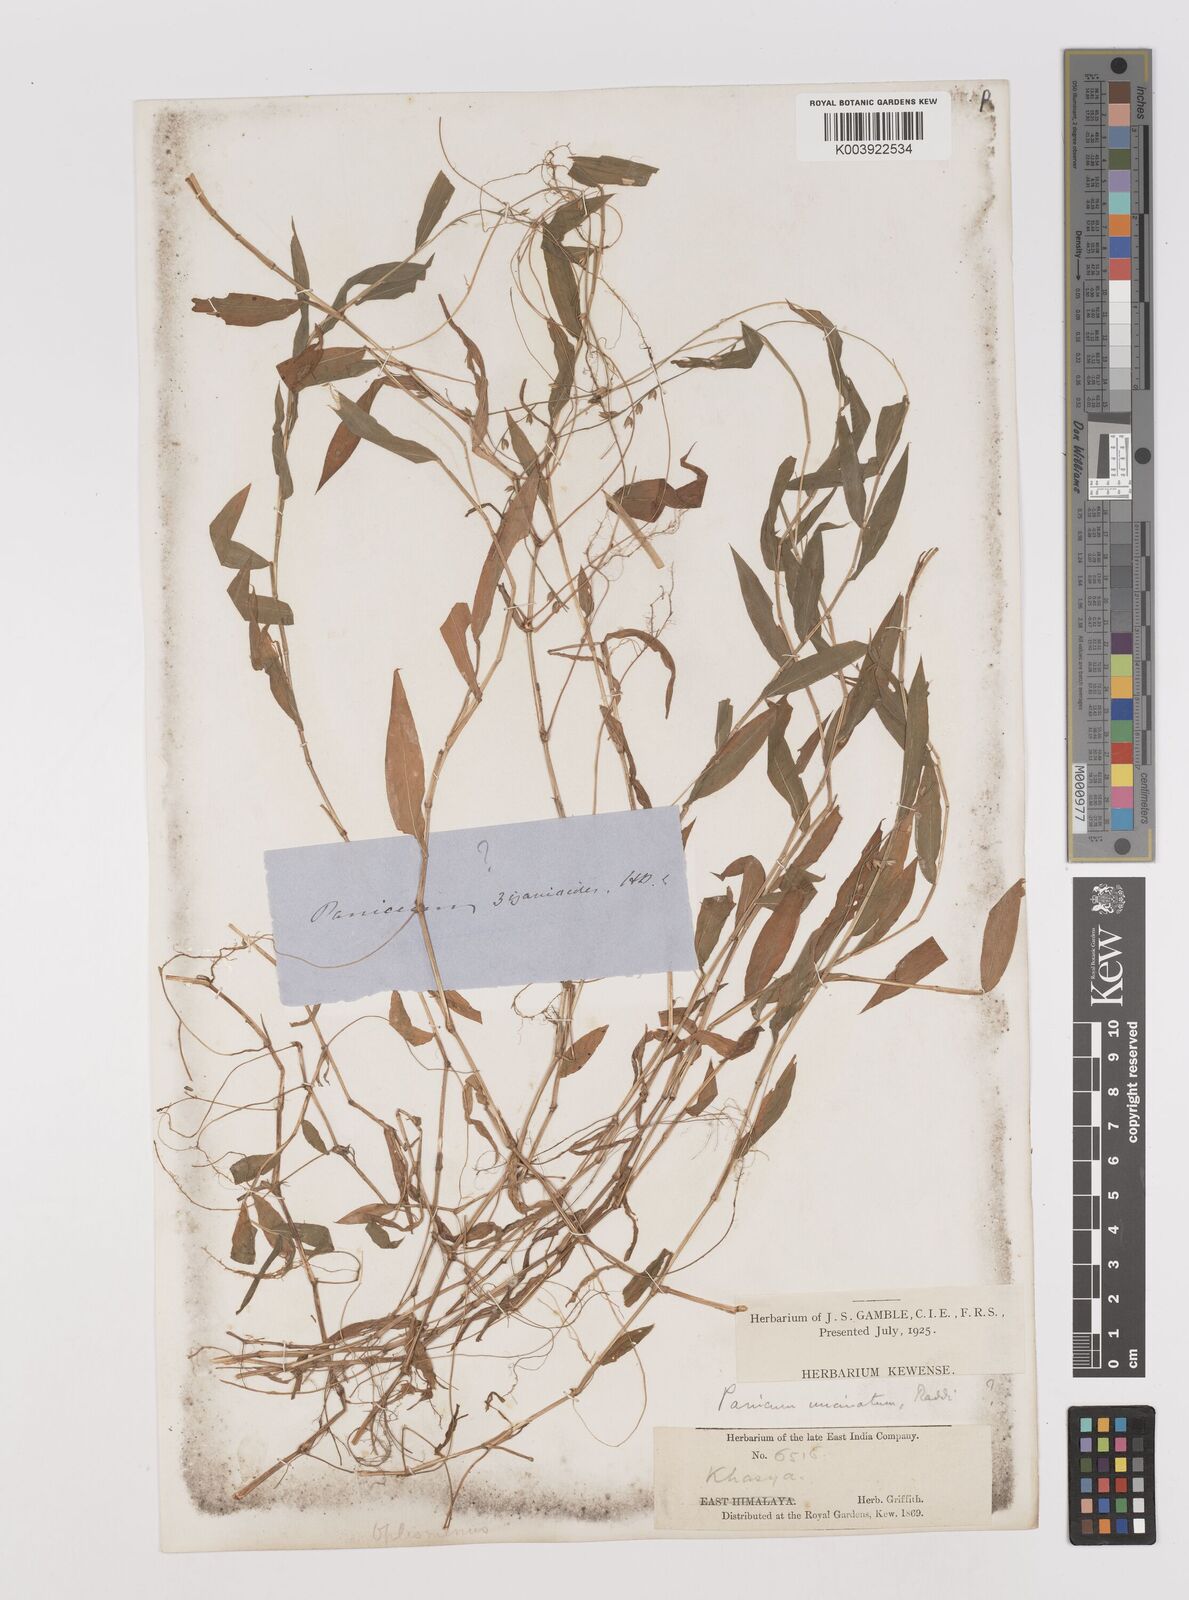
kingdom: Plantae
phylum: Tracheophyta
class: Liliopsida
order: Poales
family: Poaceae
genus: Pseudechinolaena
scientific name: Pseudechinolaena polystachya
